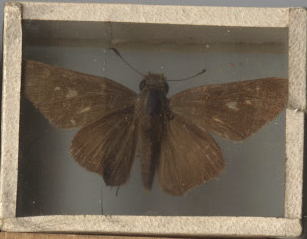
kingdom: Animalia
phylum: Arthropoda
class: Insecta
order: Lepidoptera
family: Hesperiidae
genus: Panoquina
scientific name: Panoquina ocola
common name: Ocola Skipper
